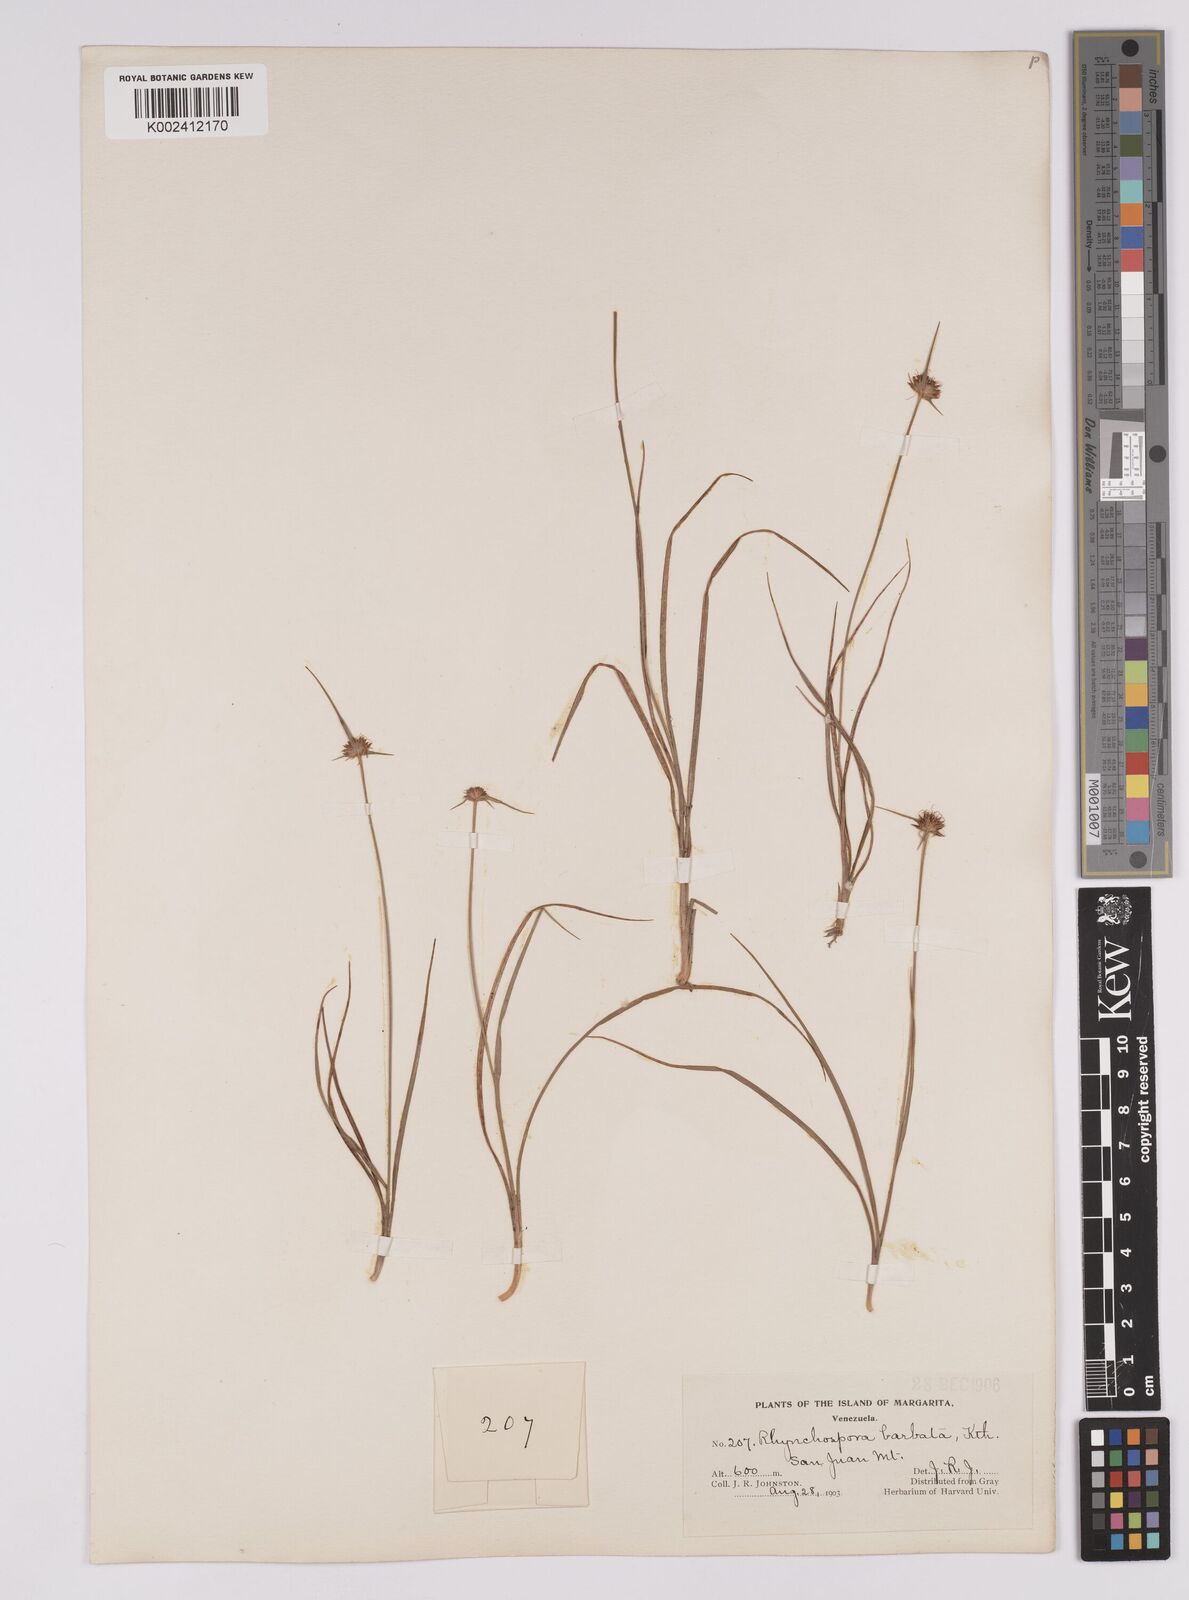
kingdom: Plantae
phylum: Tracheophyta
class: Liliopsida
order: Poales
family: Cyperaceae
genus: Rhynchospora
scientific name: Rhynchospora barbata
